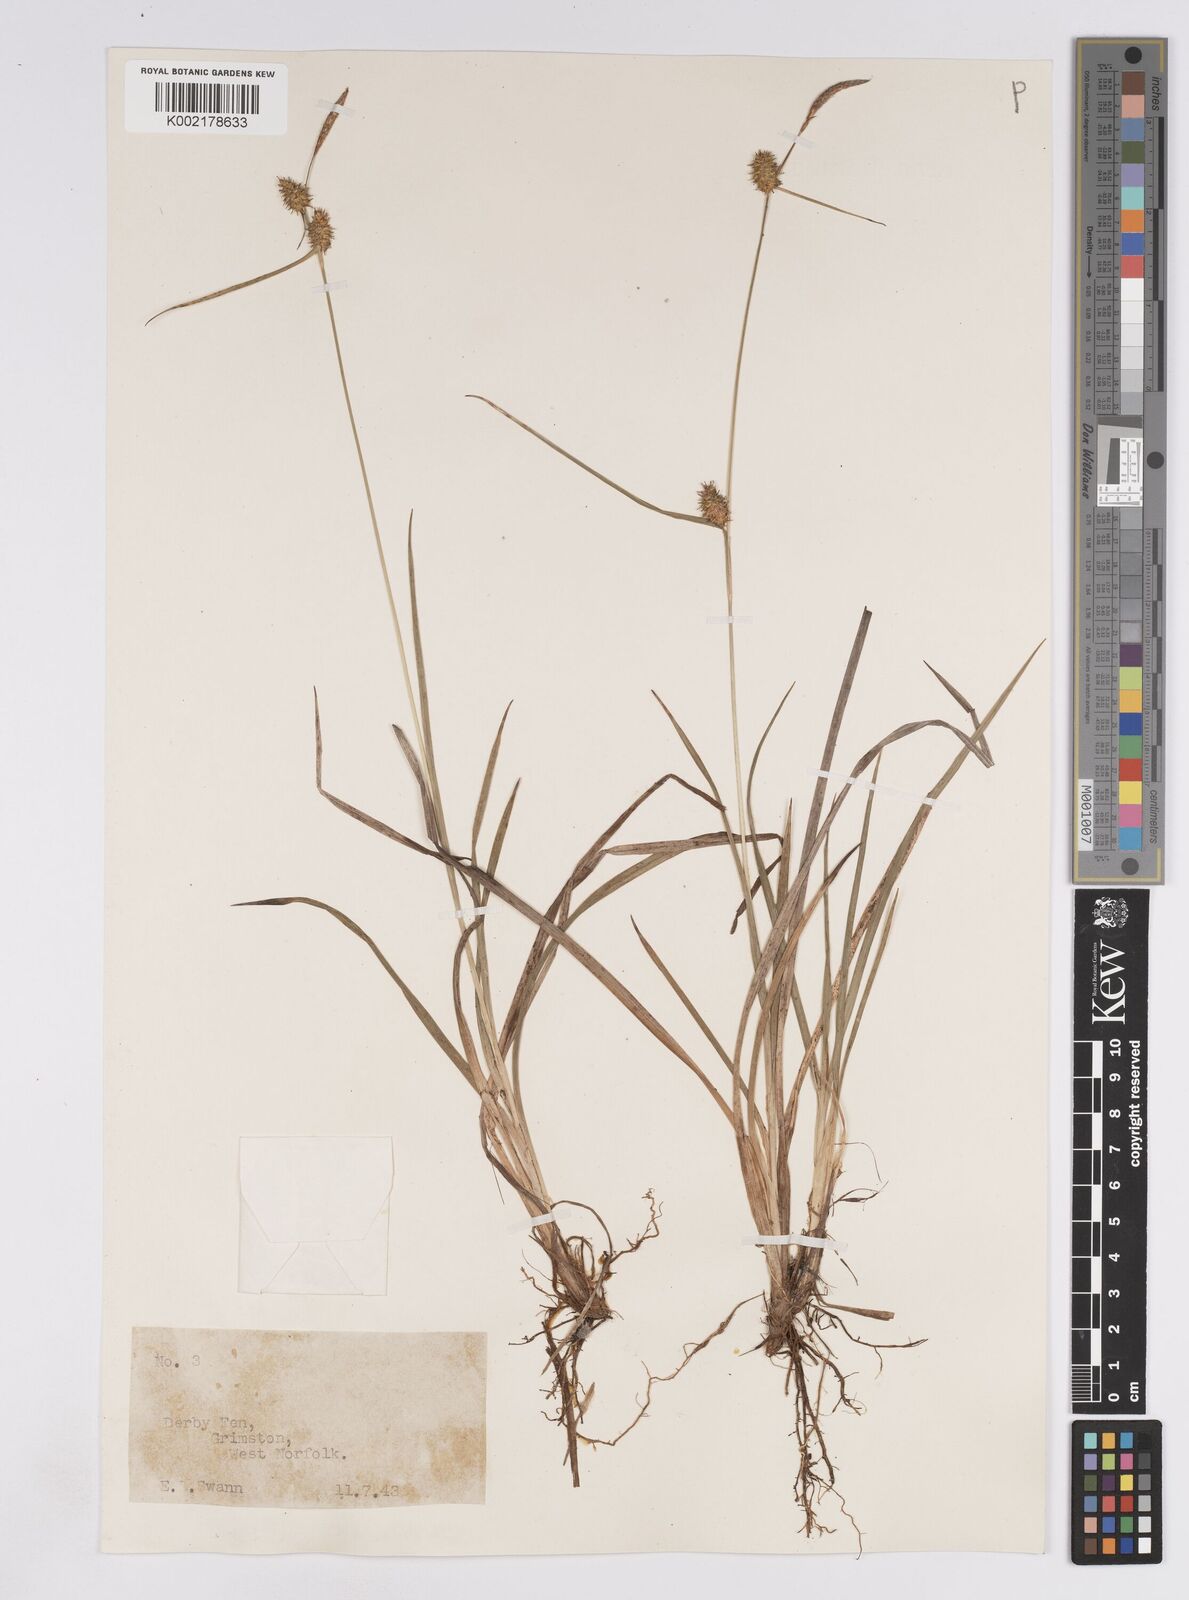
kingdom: Plantae
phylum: Tracheophyta
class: Liliopsida
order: Poales
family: Cyperaceae
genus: Carex
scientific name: Carex lepidocarpa
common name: Long-stalked yellow-sedge
